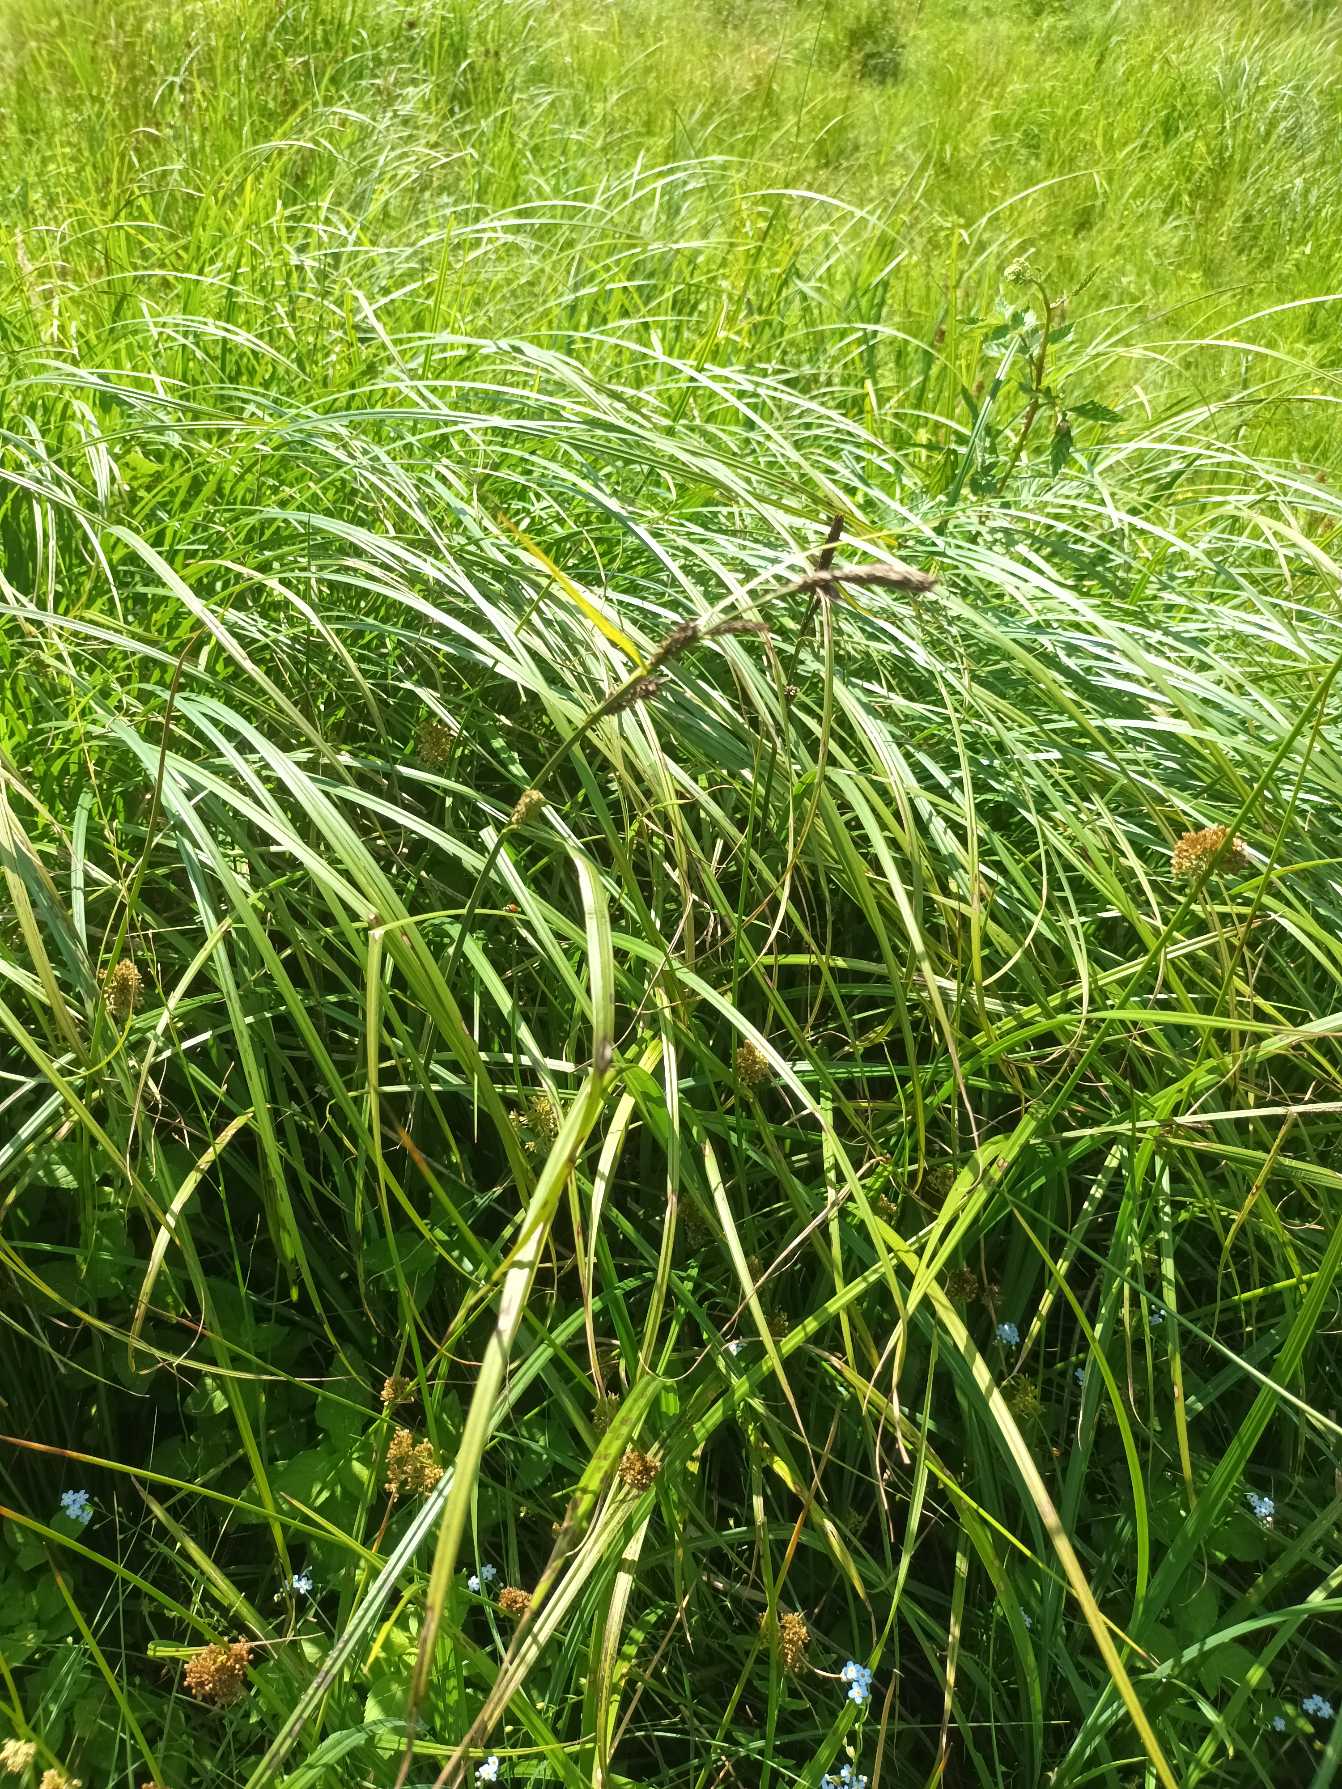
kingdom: Plantae
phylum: Tracheophyta
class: Liliopsida
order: Poales
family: Cyperaceae
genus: Carex
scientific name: Carex acuta
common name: Nikkende star
